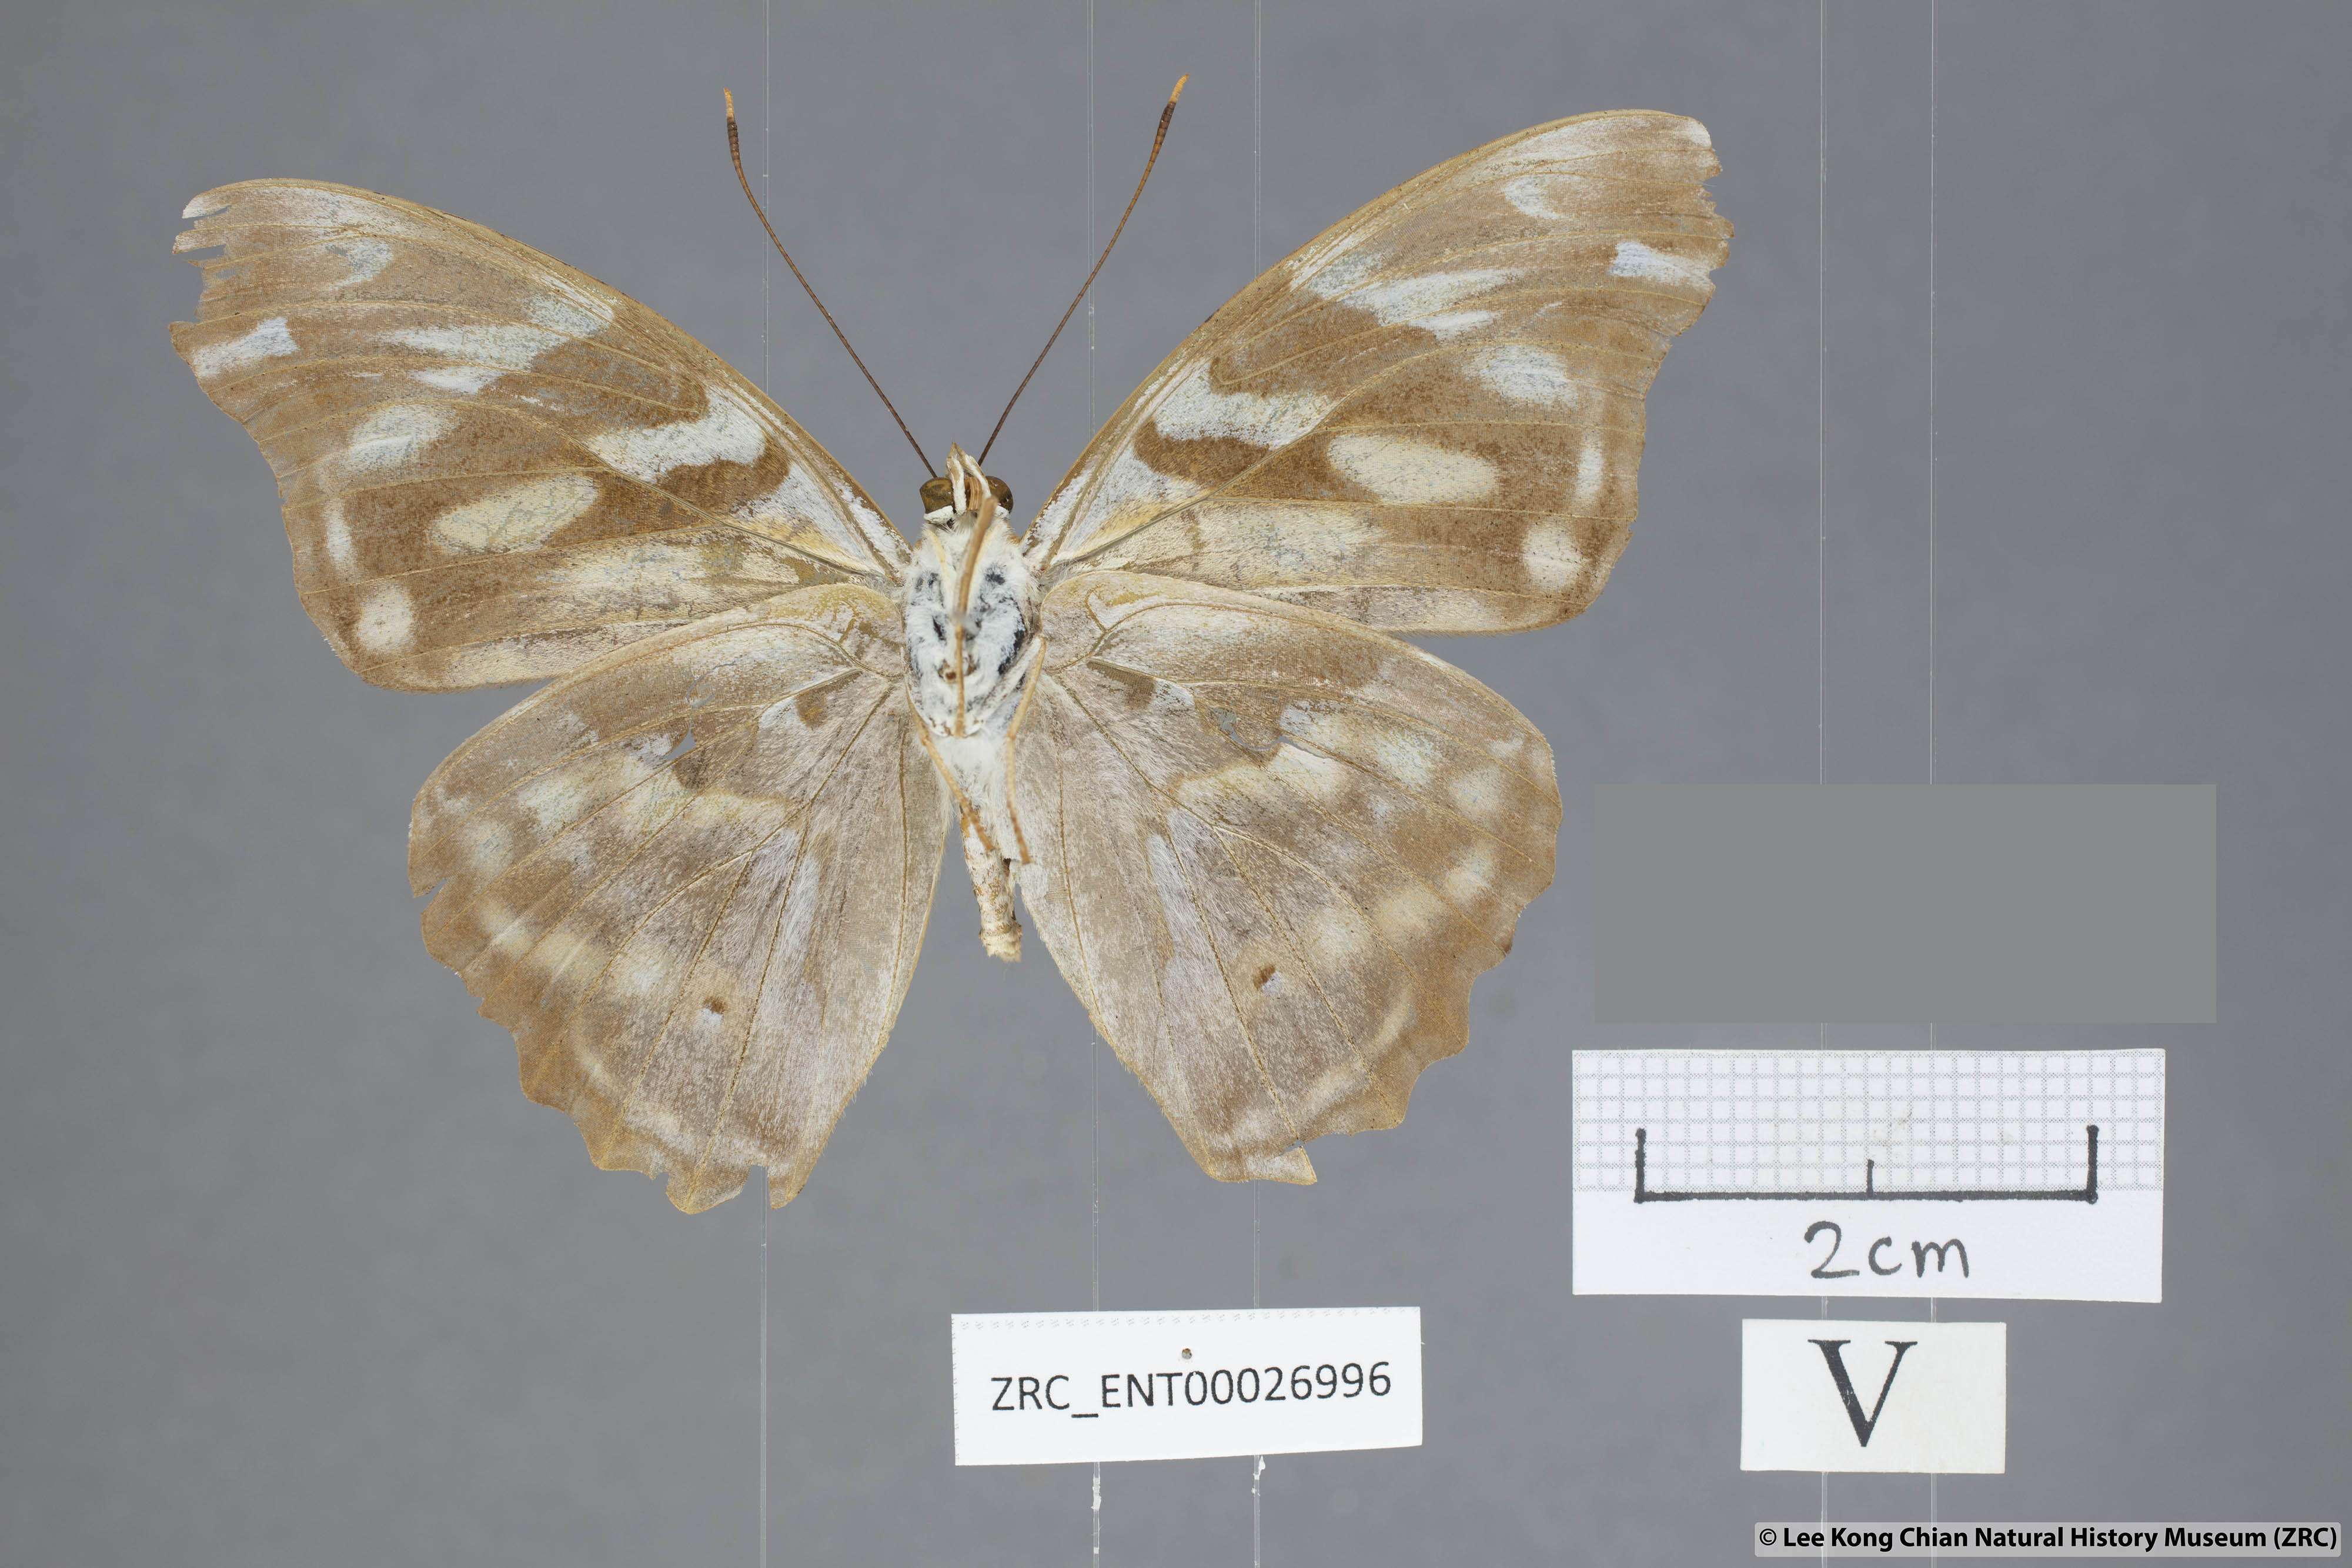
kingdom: Animalia
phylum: Arthropoda
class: Insecta
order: Lepidoptera
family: Nymphalidae
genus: Herona
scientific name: Herona marathus
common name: Yellow pasha
